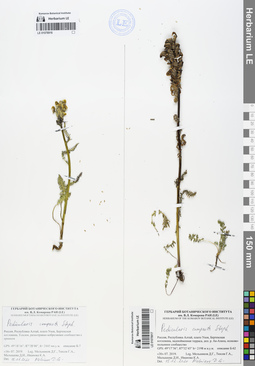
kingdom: Plantae
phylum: Tracheophyta
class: Magnoliopsida
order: Lamiales
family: Orobanchaceae
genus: Pedicularis
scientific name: Pedicularis compacta
